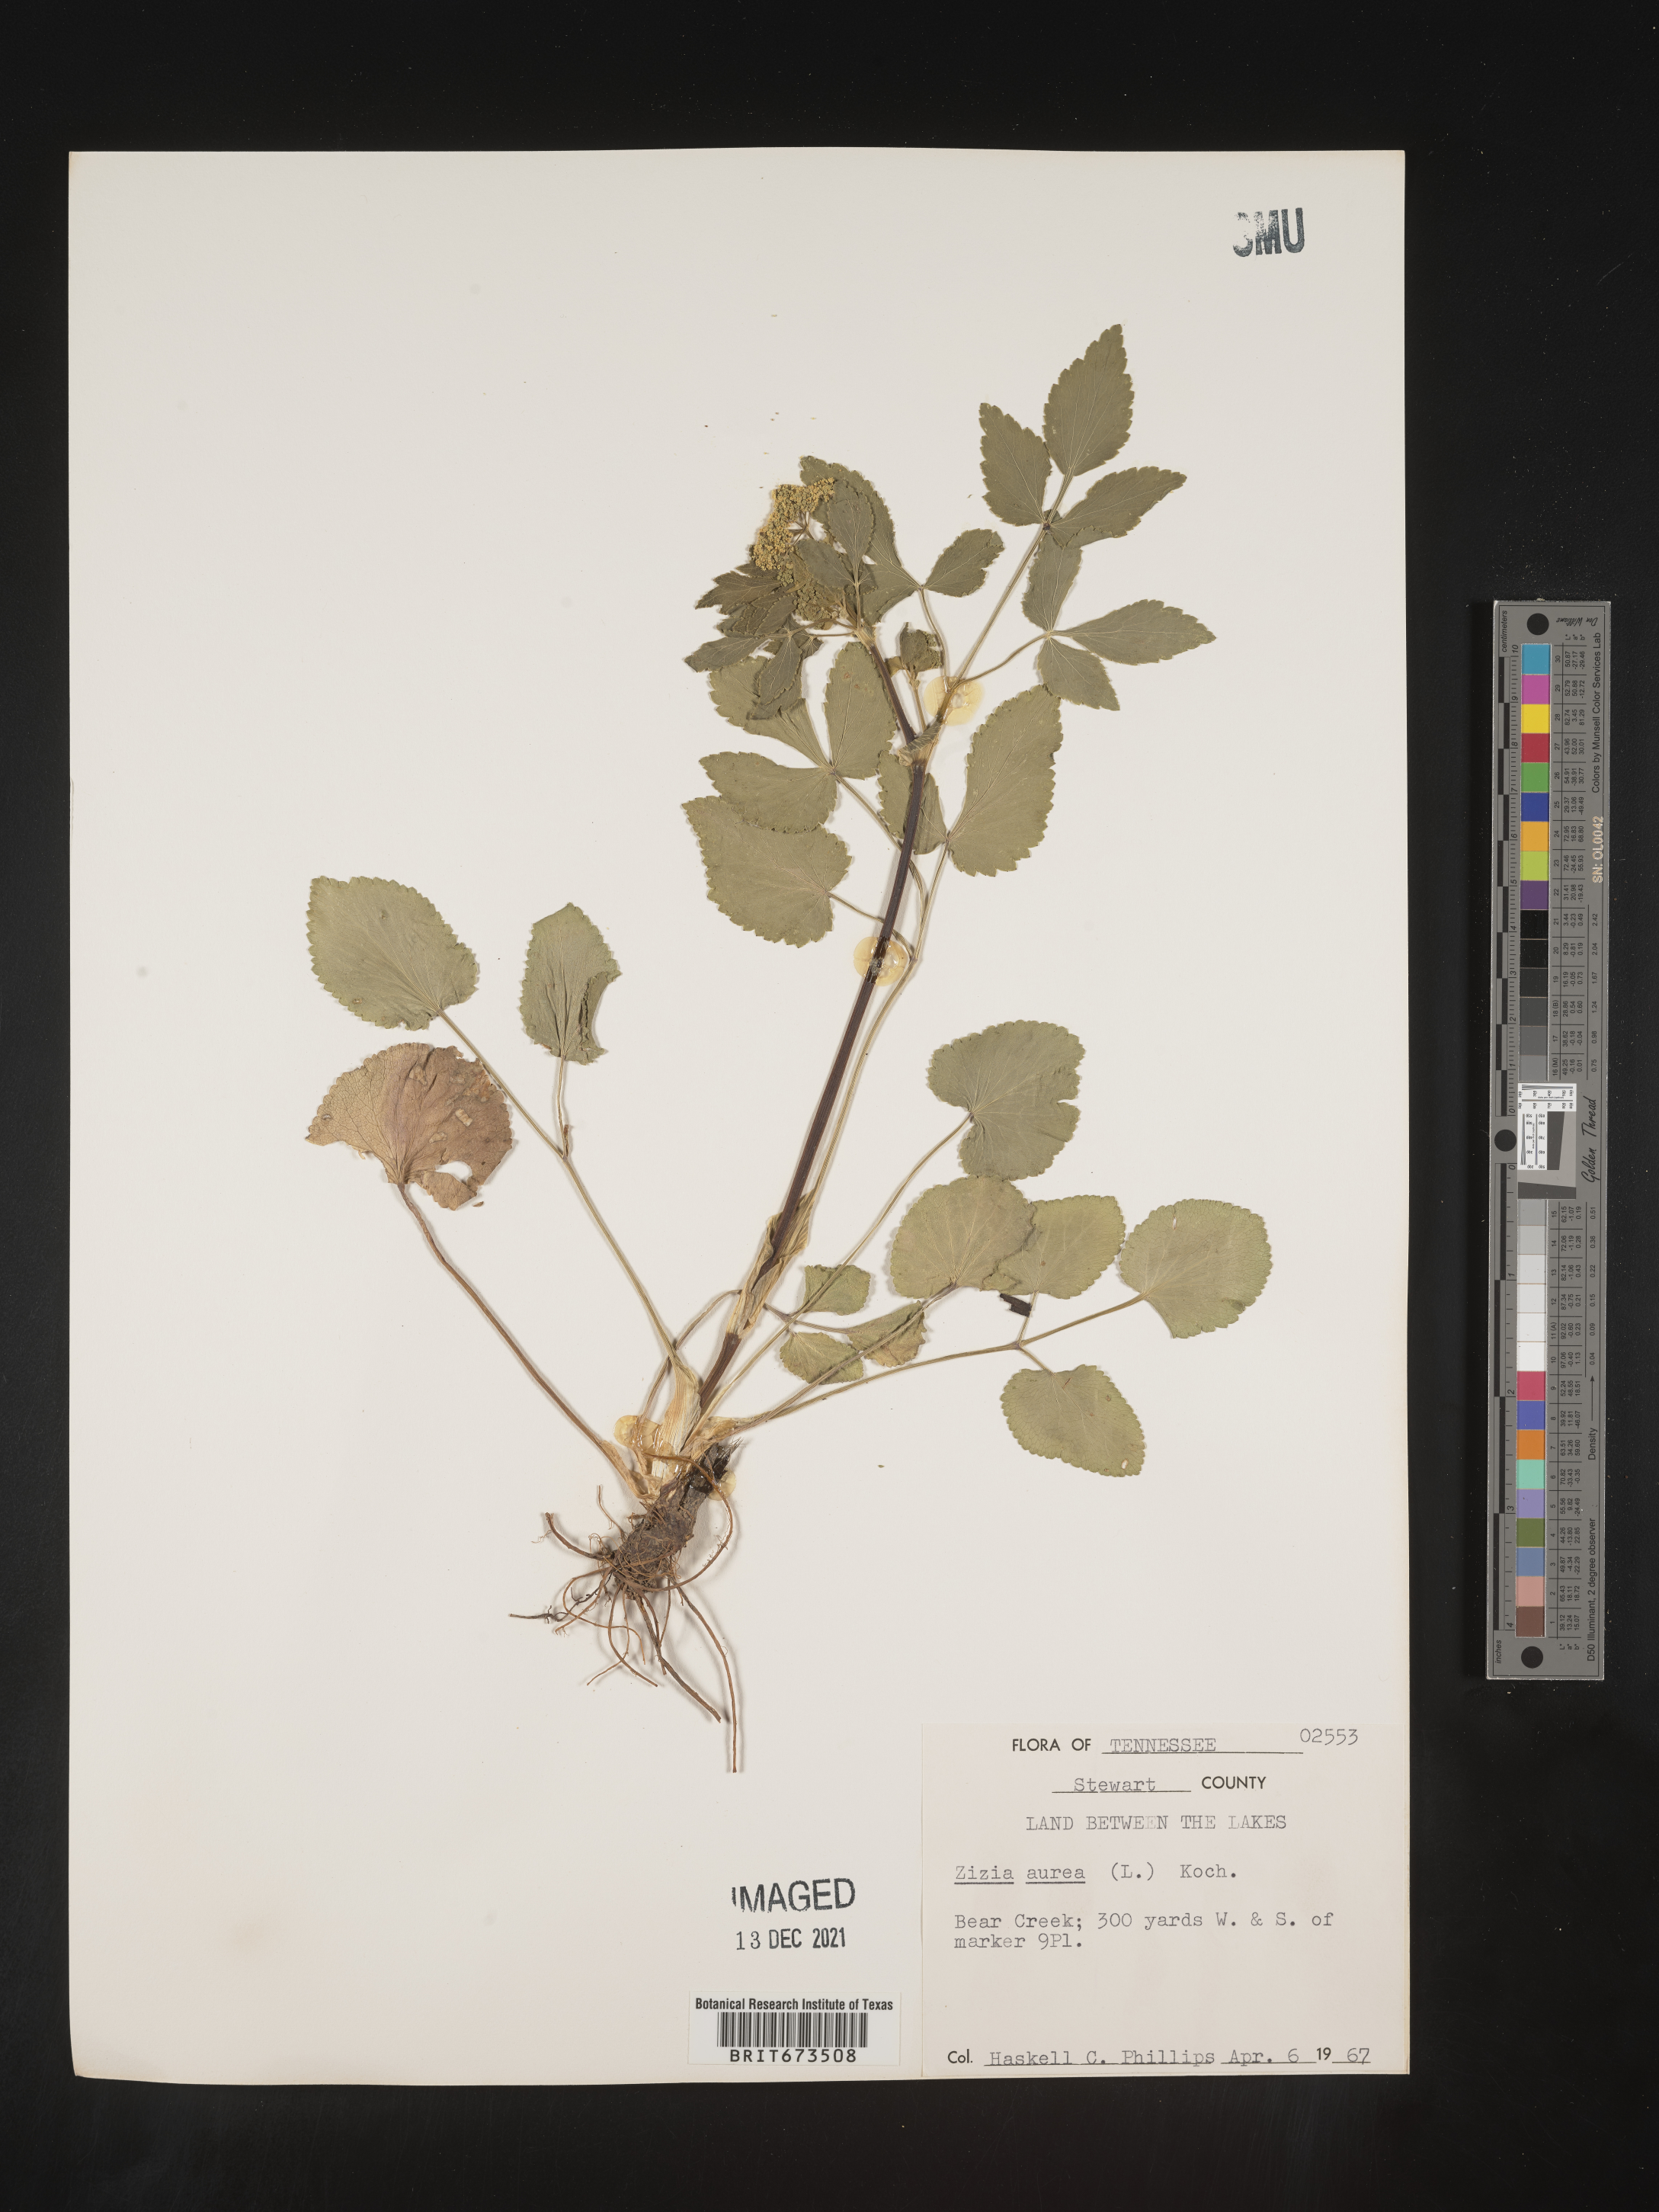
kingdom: Plantae
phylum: Tracheophyta
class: Magnoliopsida
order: Apiales
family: Apiaceae
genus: Zizia
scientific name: Zizia aurea
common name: Golden alexanders
